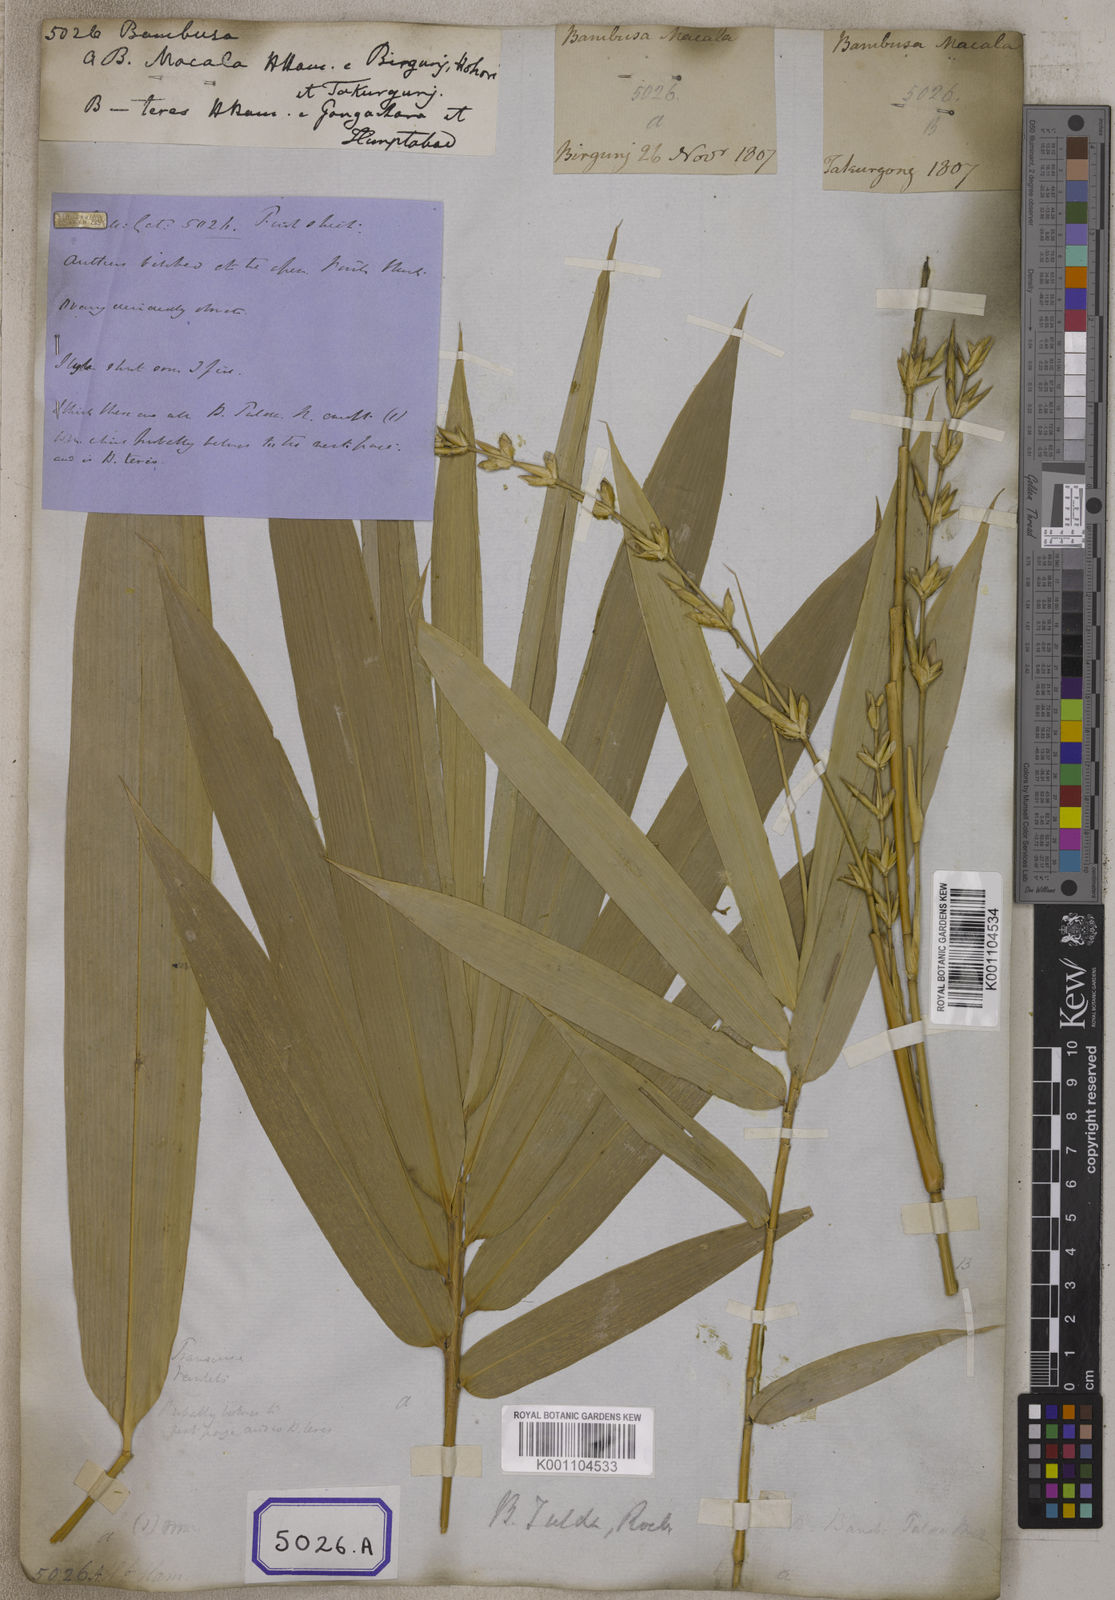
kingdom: Plantae
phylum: Tracheophyta
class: Liliopsida
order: Poales
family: Poaceae
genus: Bambusa
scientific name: Bambusa
